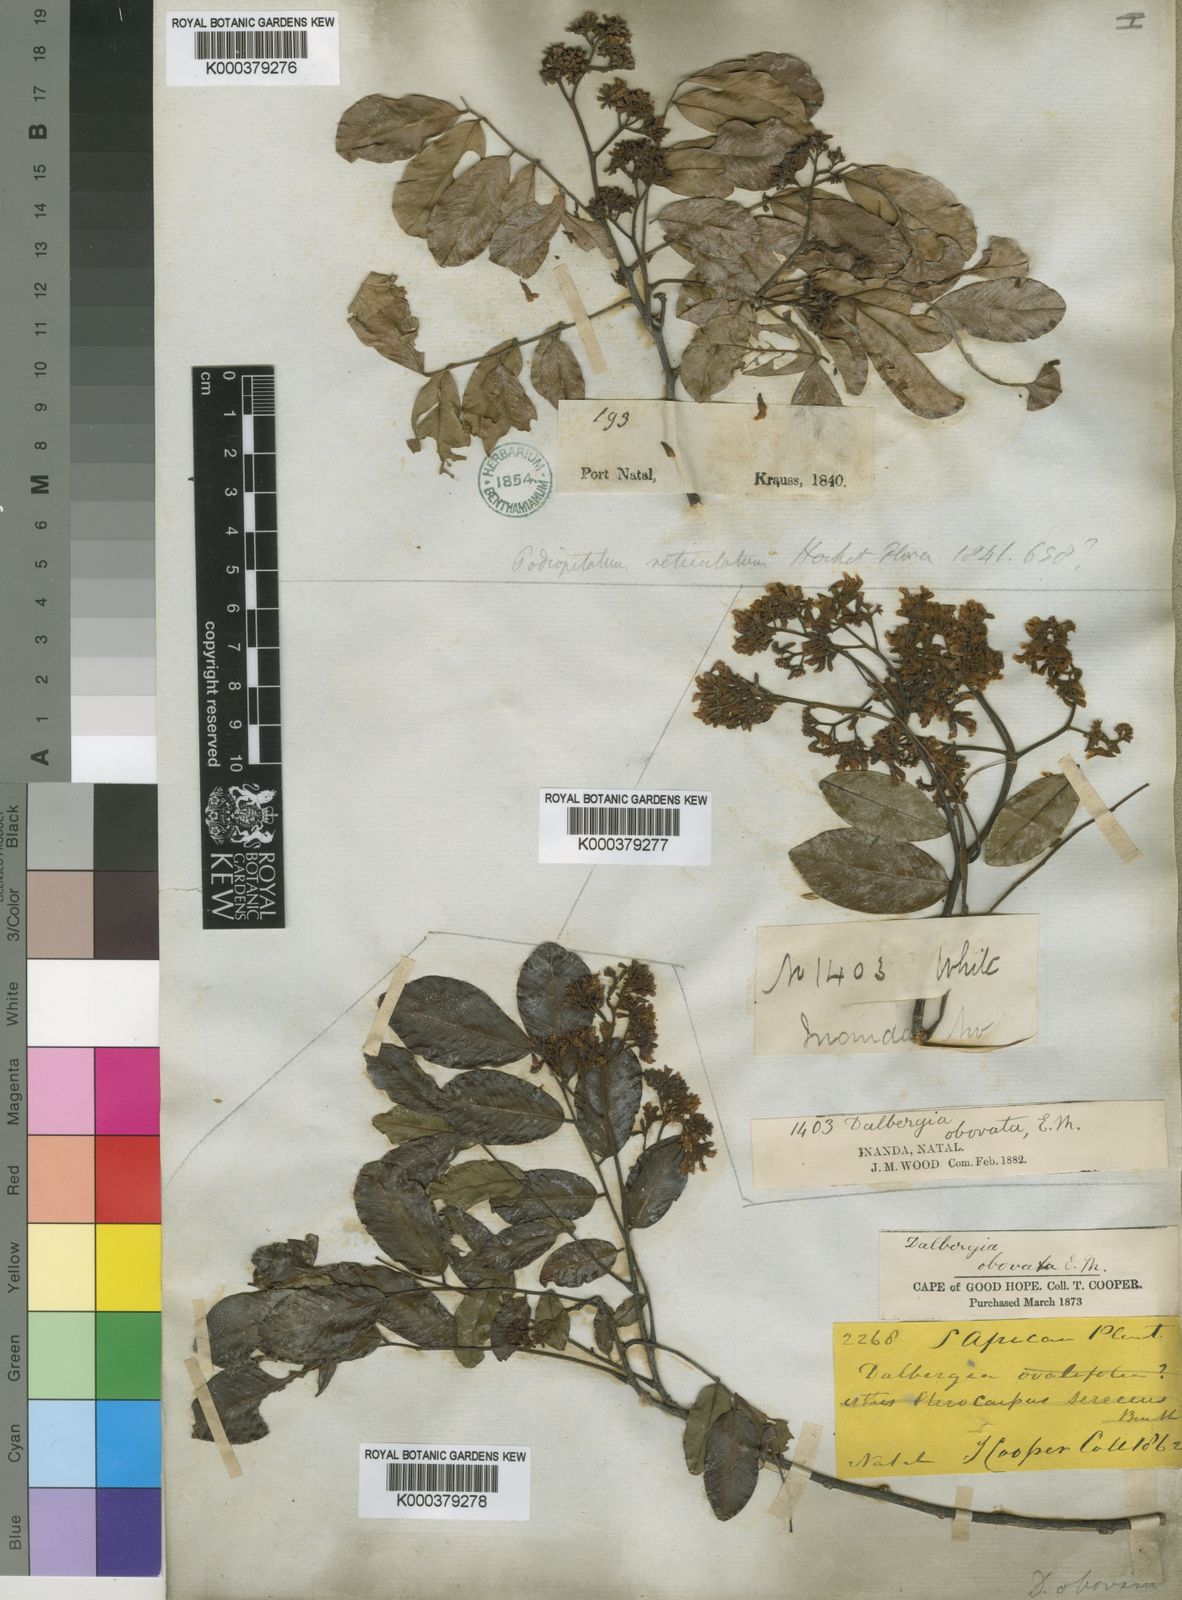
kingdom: Plantae
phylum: Tracheophyta
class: Magnoliopsida
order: Fabales
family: Fabaceae
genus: Dalbergia
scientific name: Dalbergia obovata
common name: Climbing flat-bean
